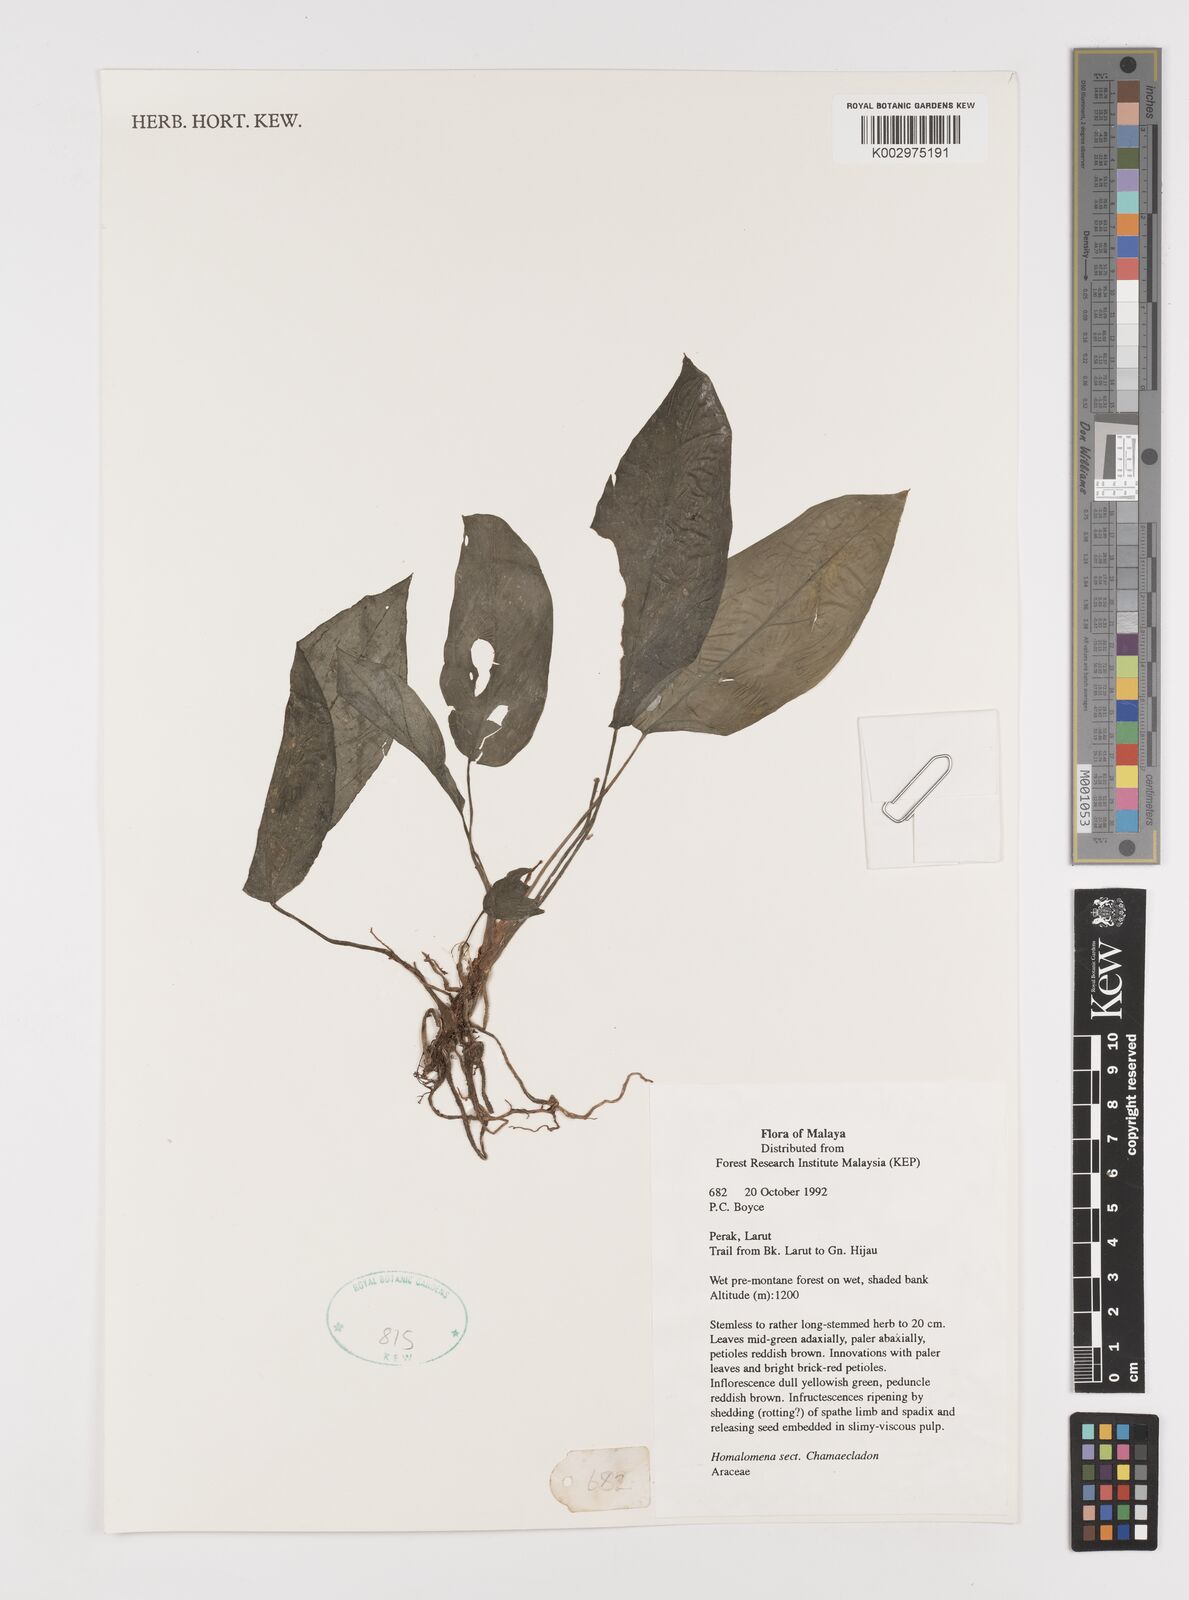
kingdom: Plantae
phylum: Tracheophyta
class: Liliopsida
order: Alismatales
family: Araceae
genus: Homalomena
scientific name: Homalomena
